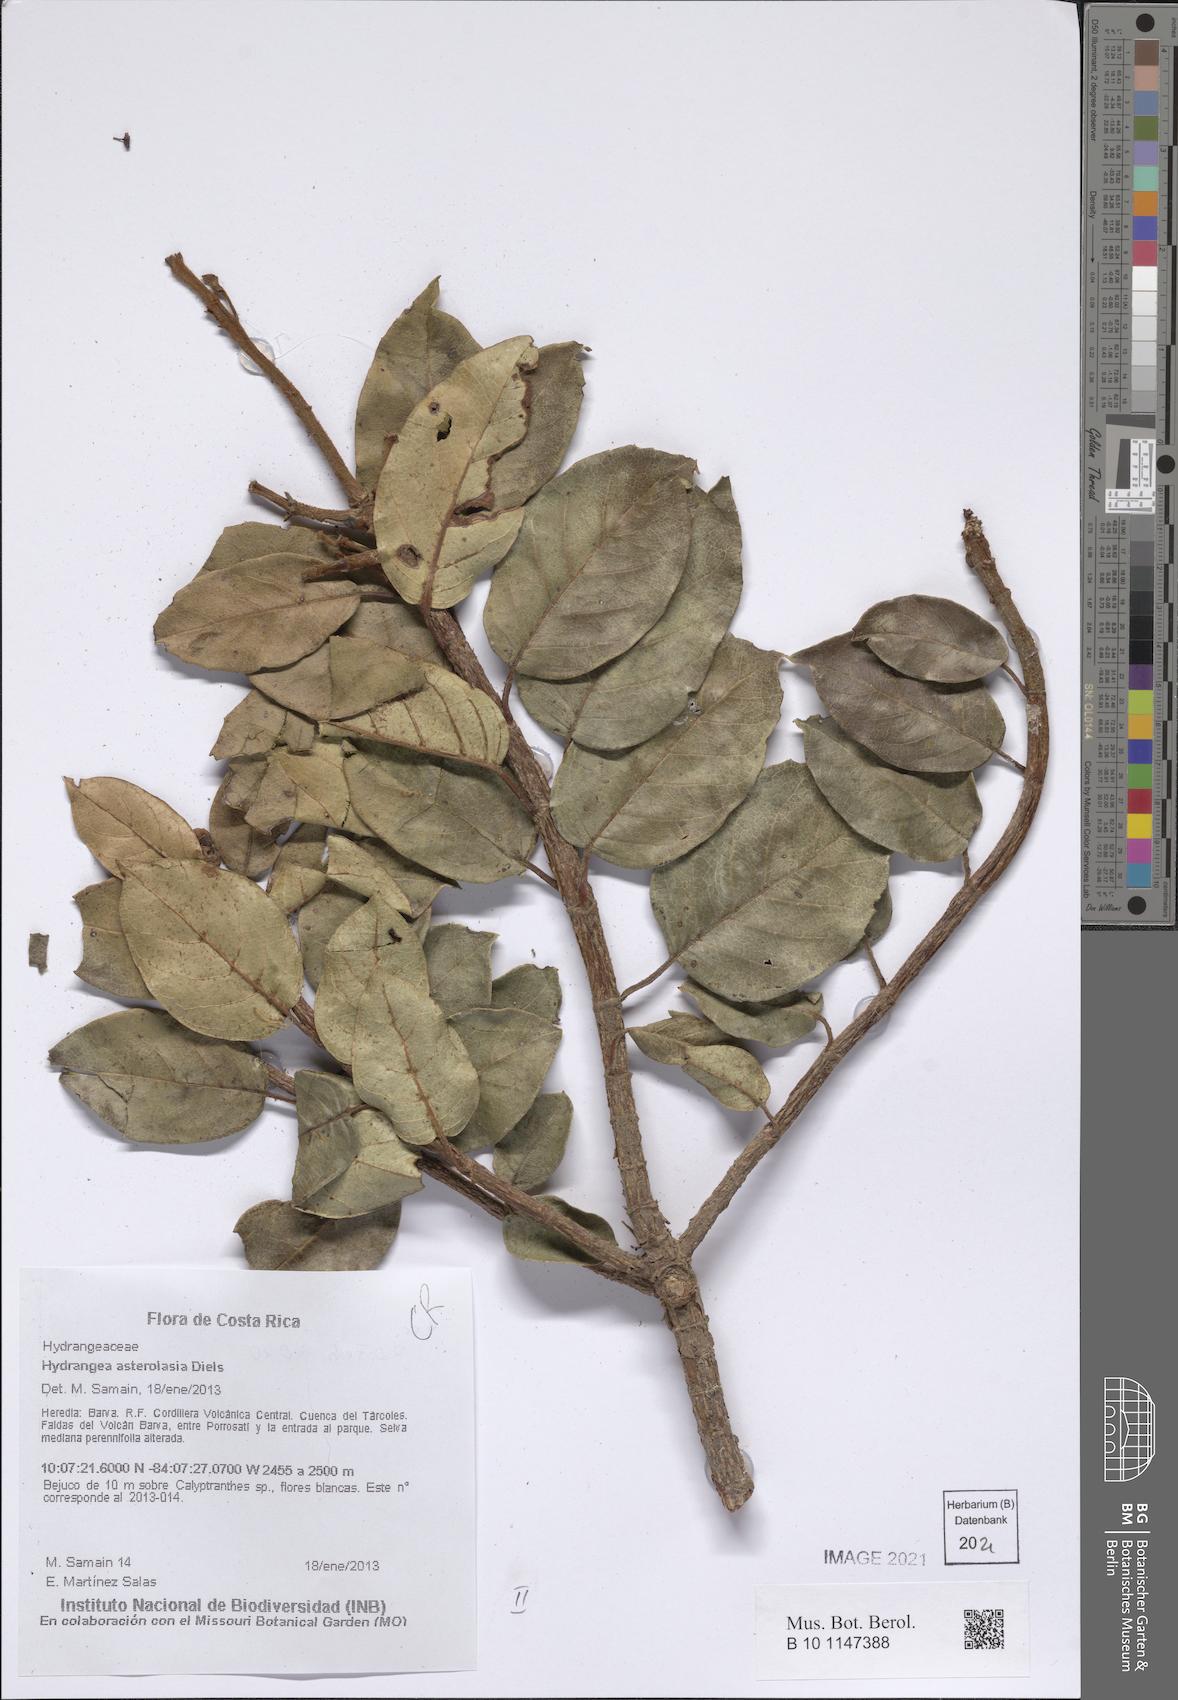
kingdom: Plantae
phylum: Tracheophyta
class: Magnoliopsida
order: Cornales
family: Hydrangeaceae
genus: Hydrangea
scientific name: Hydrangea asterolasia
